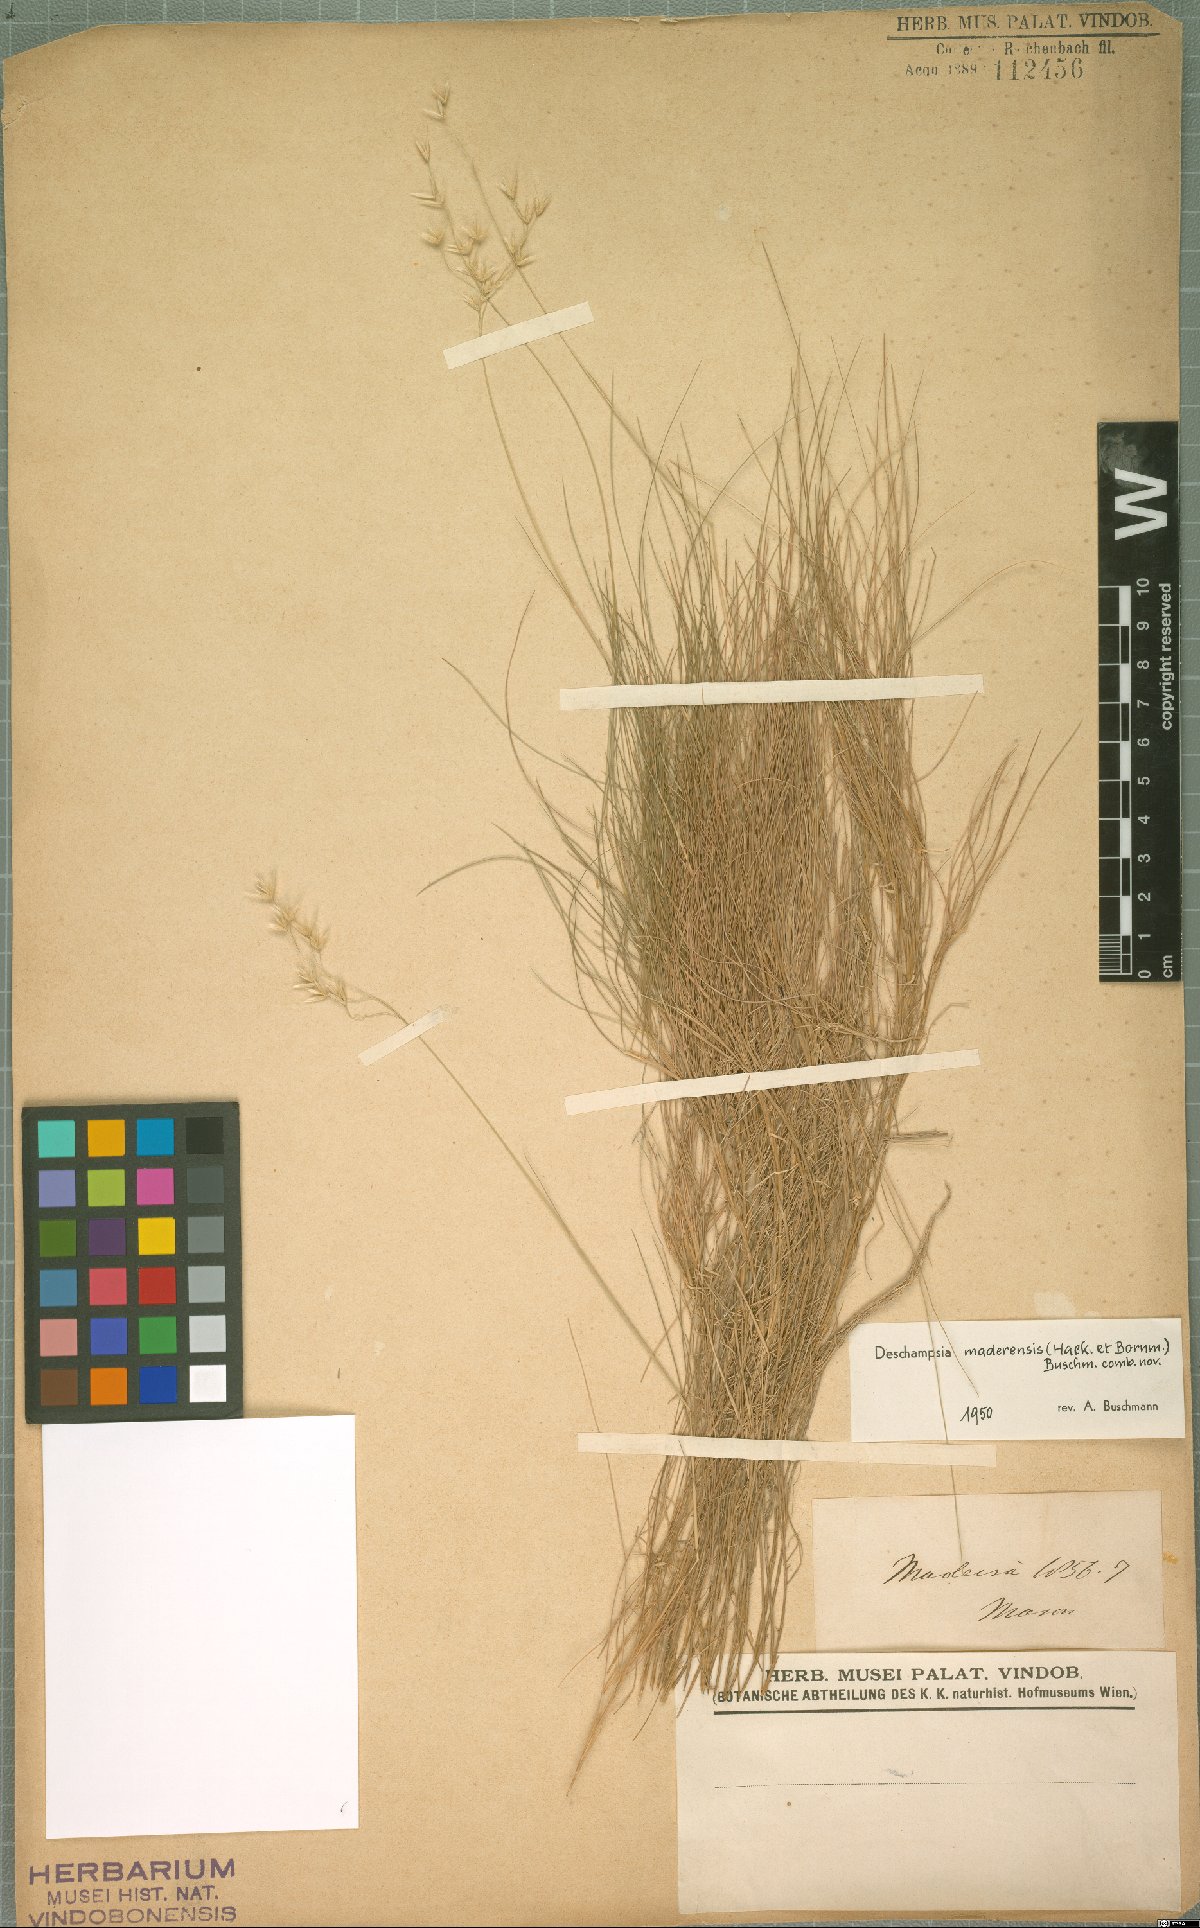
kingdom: Plantae
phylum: Tracheophyta
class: Liliopsida
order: Poales
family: Poaceae
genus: Avenella
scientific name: Avenella flexuosa
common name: Wavy hairgrass
